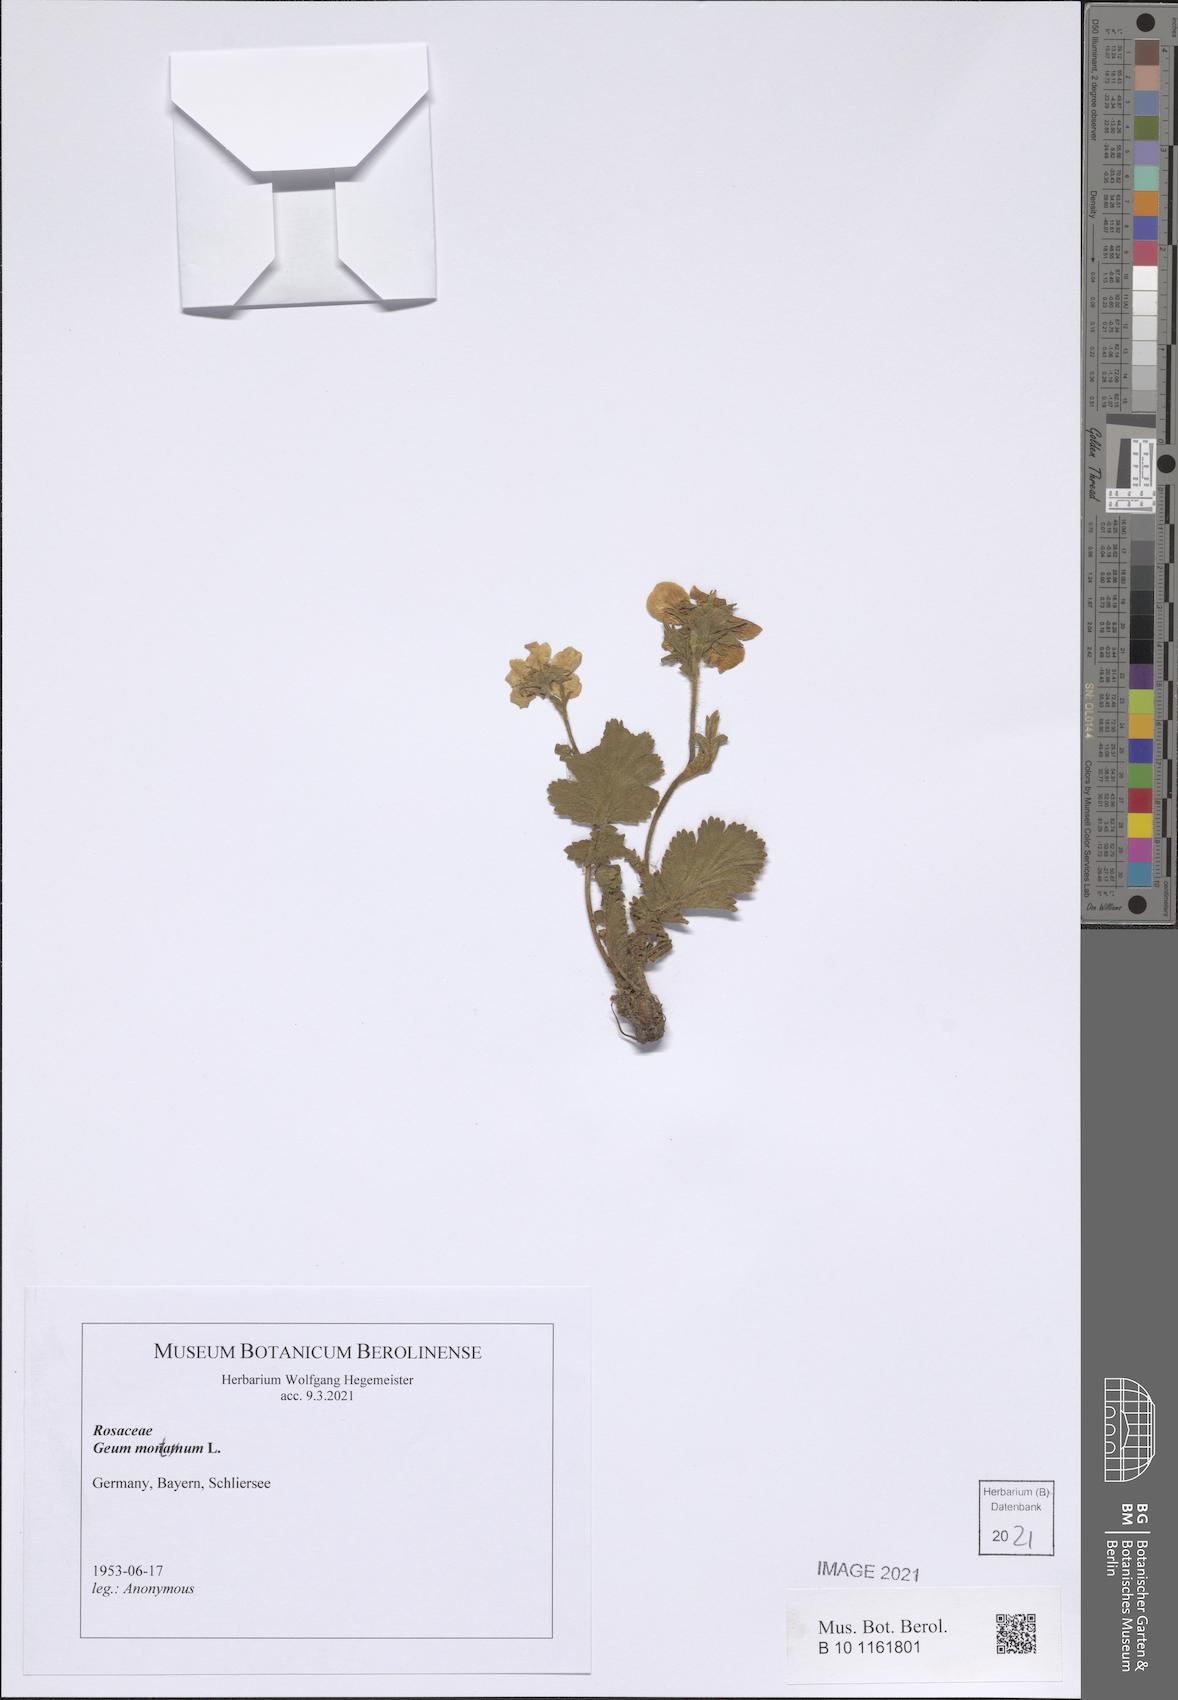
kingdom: Plantae
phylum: Tracheophyta
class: Magnoliopsida
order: Rosales
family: Rosaceae
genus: Geum
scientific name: Geum montanum
